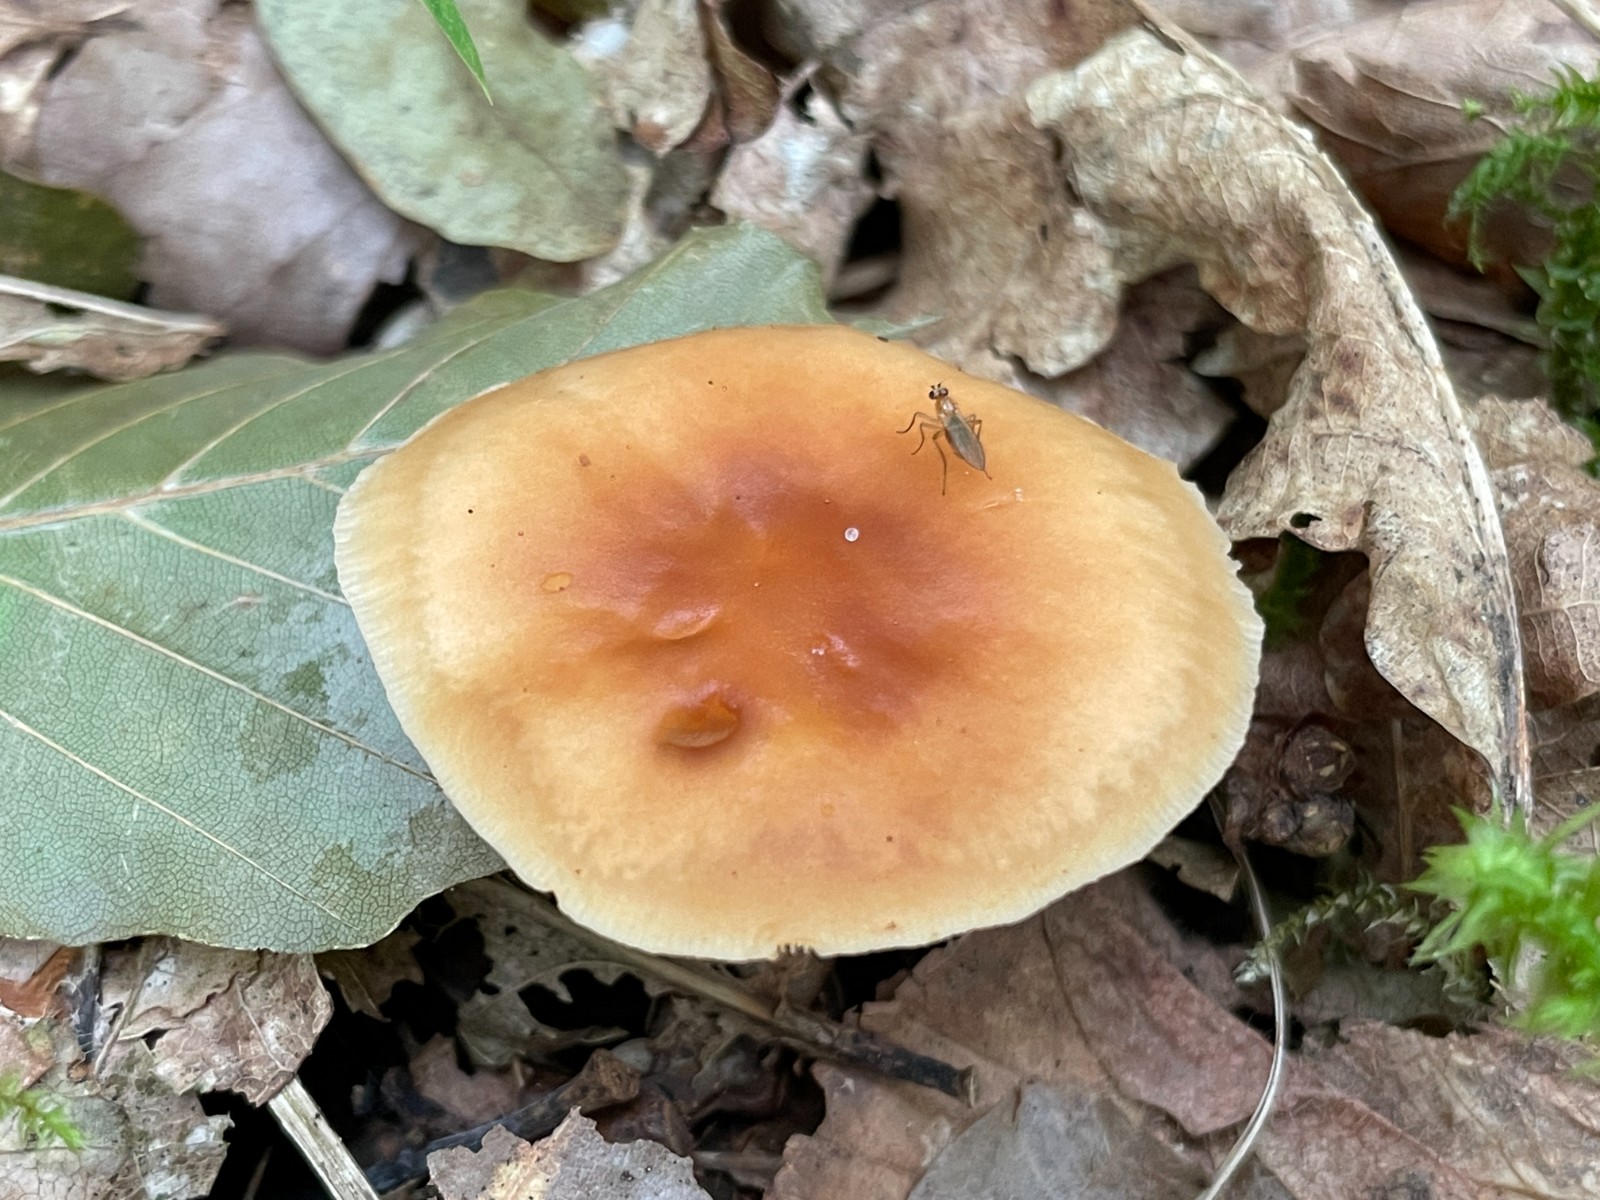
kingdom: Fungi
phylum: Basidiomycota
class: Agaricomycetes
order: Agaricales
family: Omphalotaceae
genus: Gymnopus
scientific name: Gymnopus dryophilus
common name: løv-fladhat
